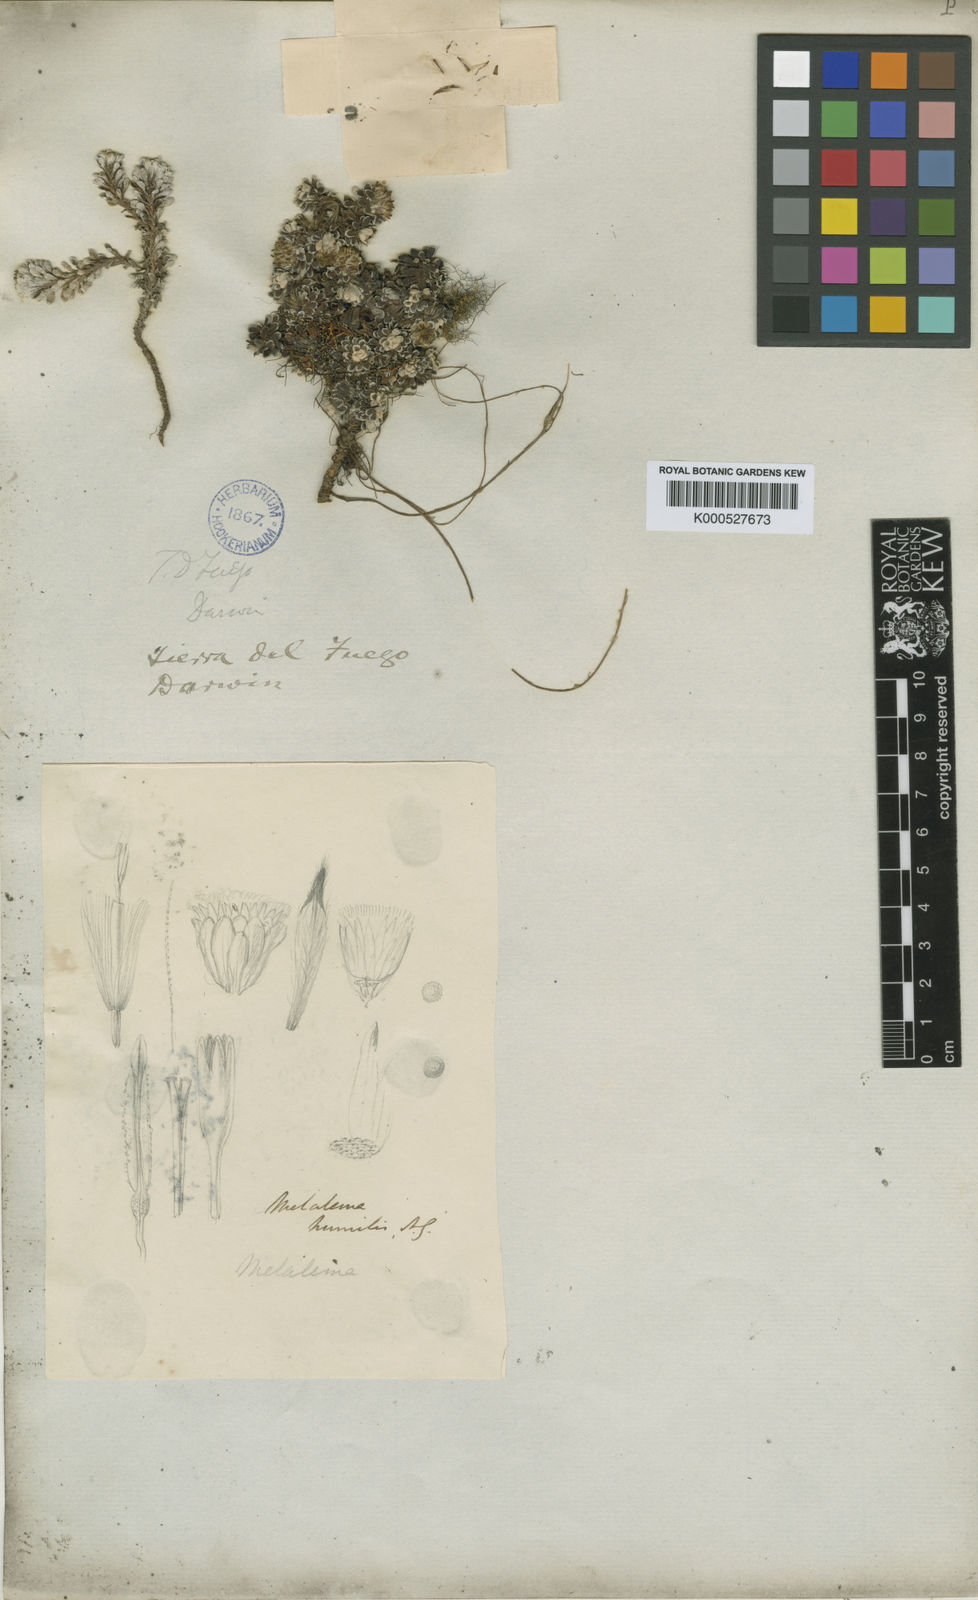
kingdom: Plantae
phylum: Tracheophyta
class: Magnoliopsida
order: Asterales
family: Asteraceae
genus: Senecio
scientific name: Senecio humifusus
